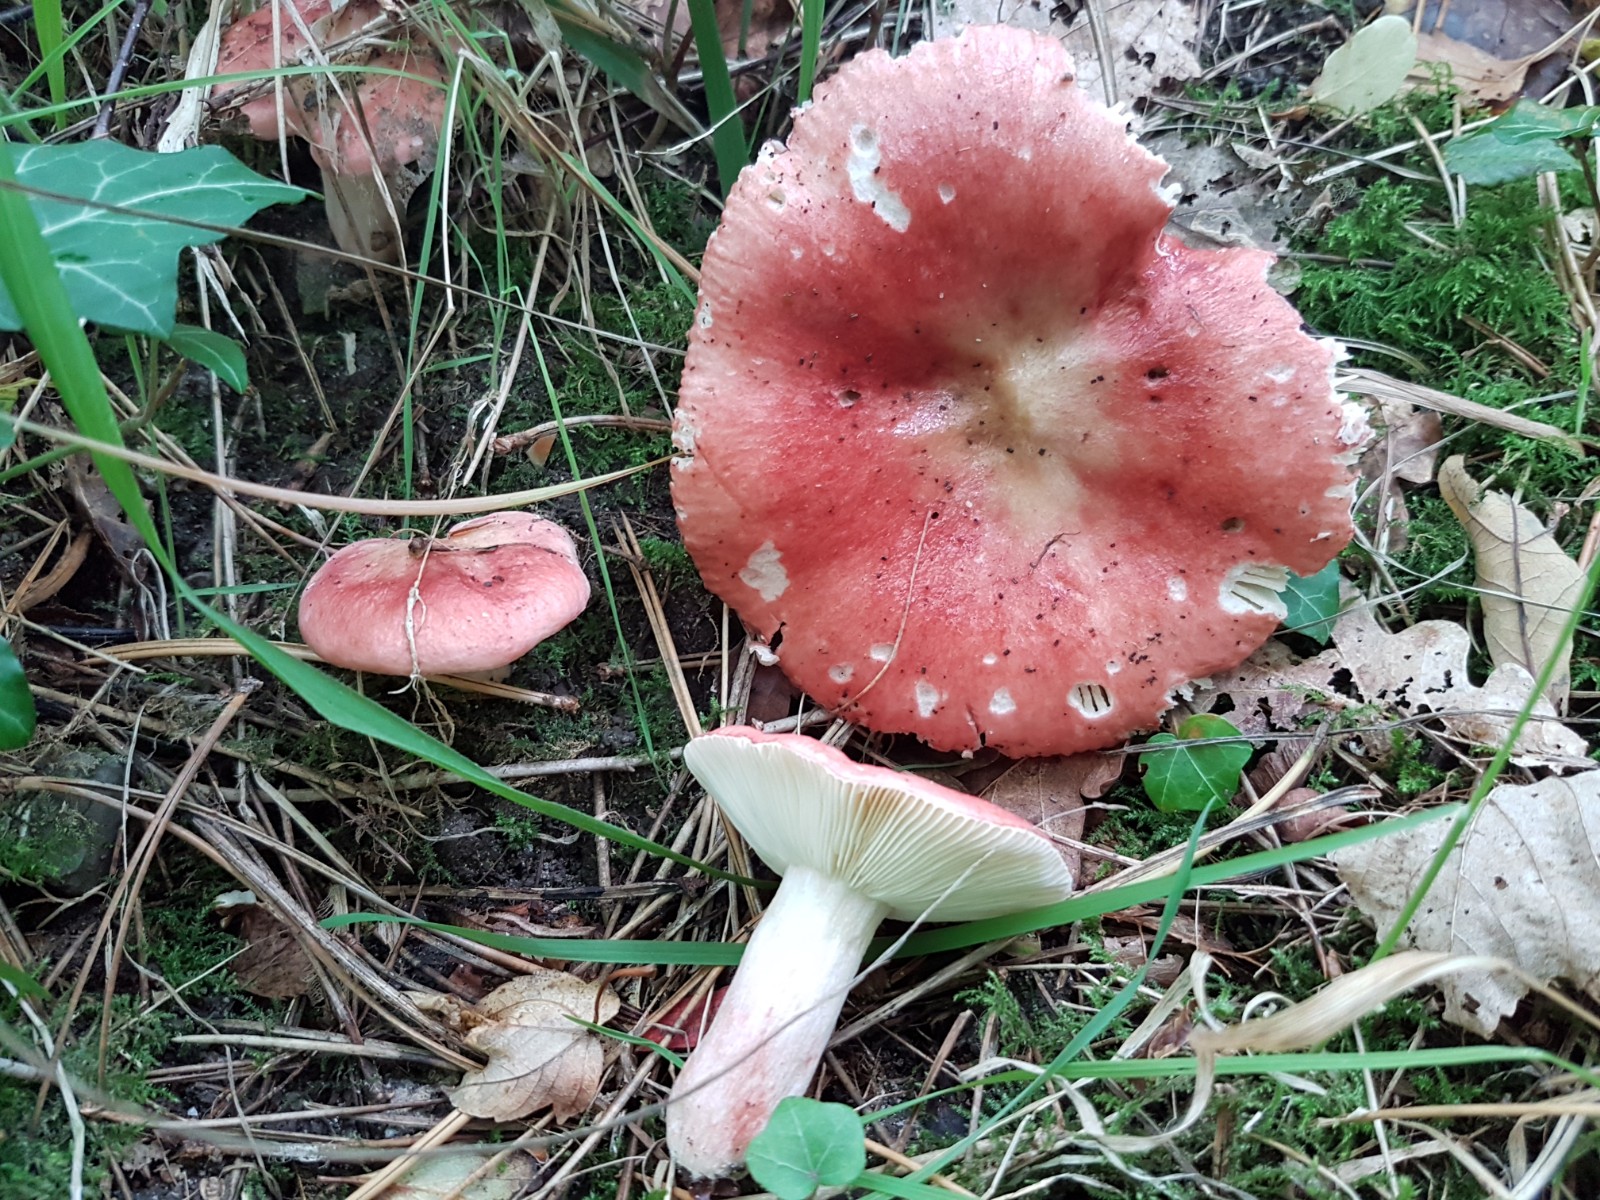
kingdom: Fungi
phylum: Basidiomycota
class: Agaricomycetes
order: Russulales
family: Russulaceae
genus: Russula
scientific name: Russula sanguinea
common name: blodrød skørhat
